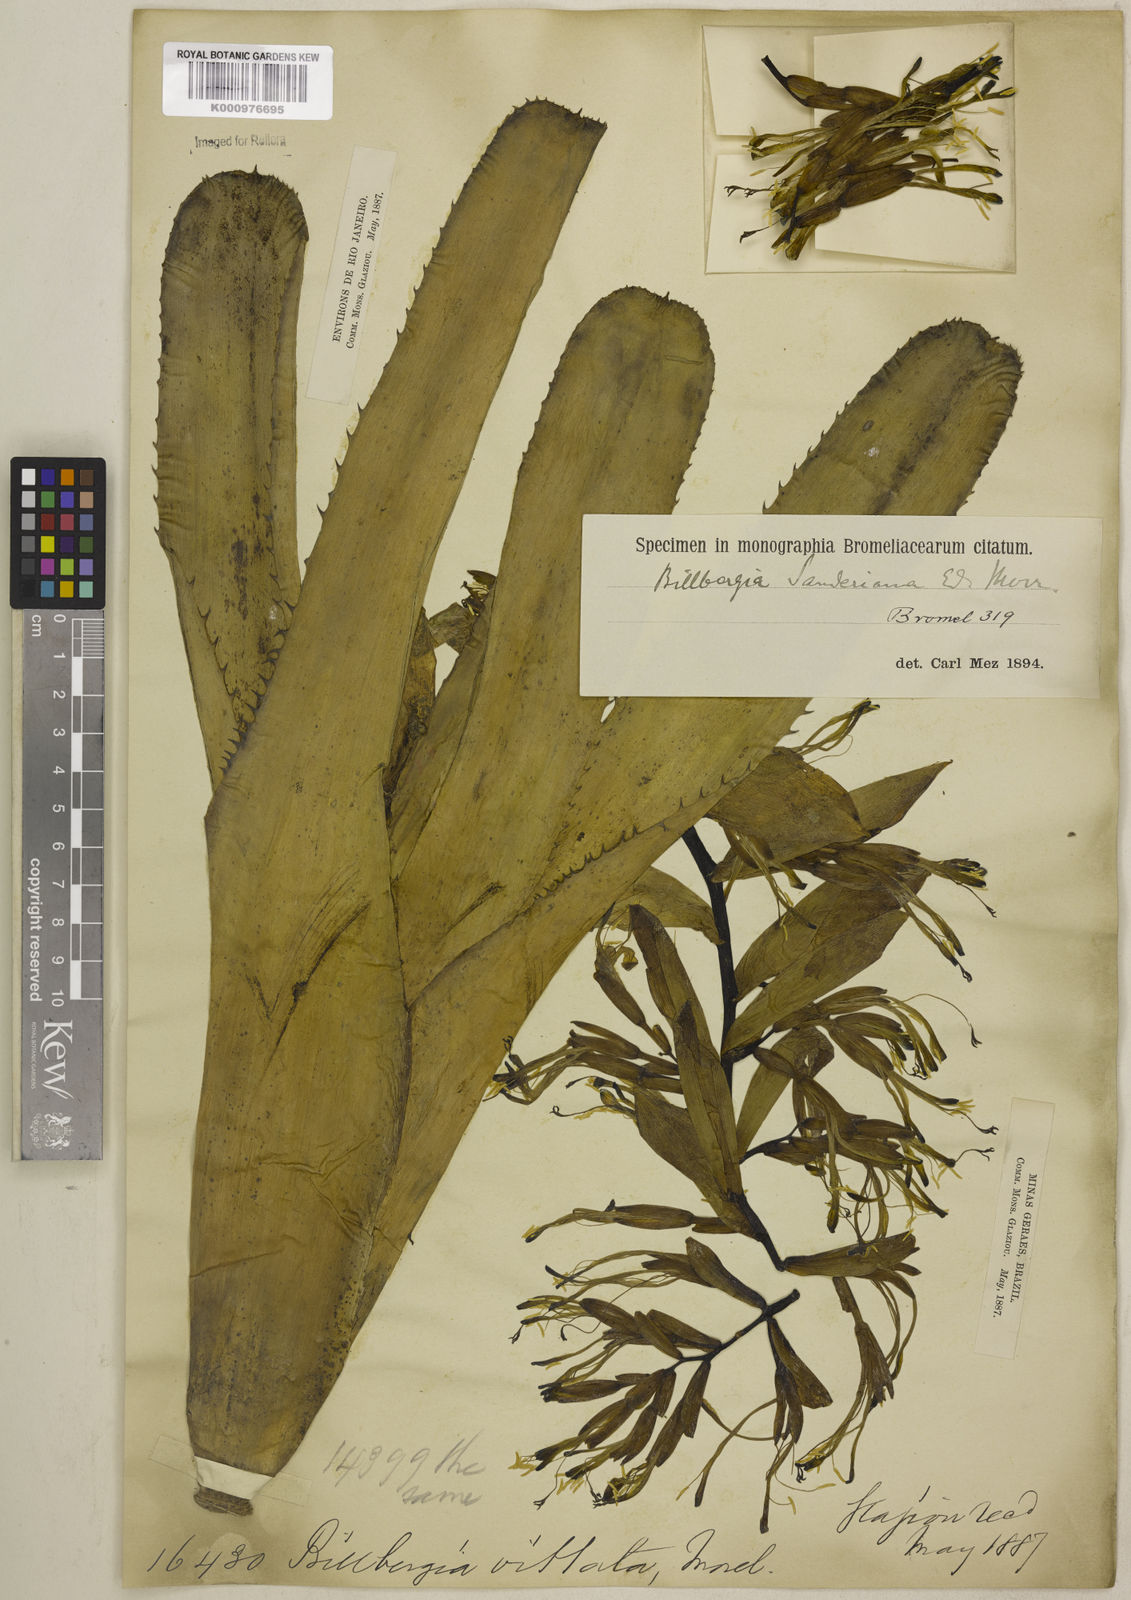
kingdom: Plantae
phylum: Tracheophyta
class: Liliopsida
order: Poales
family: Bromeliaceae
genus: Billbergia
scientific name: Billbergia sanderiana
